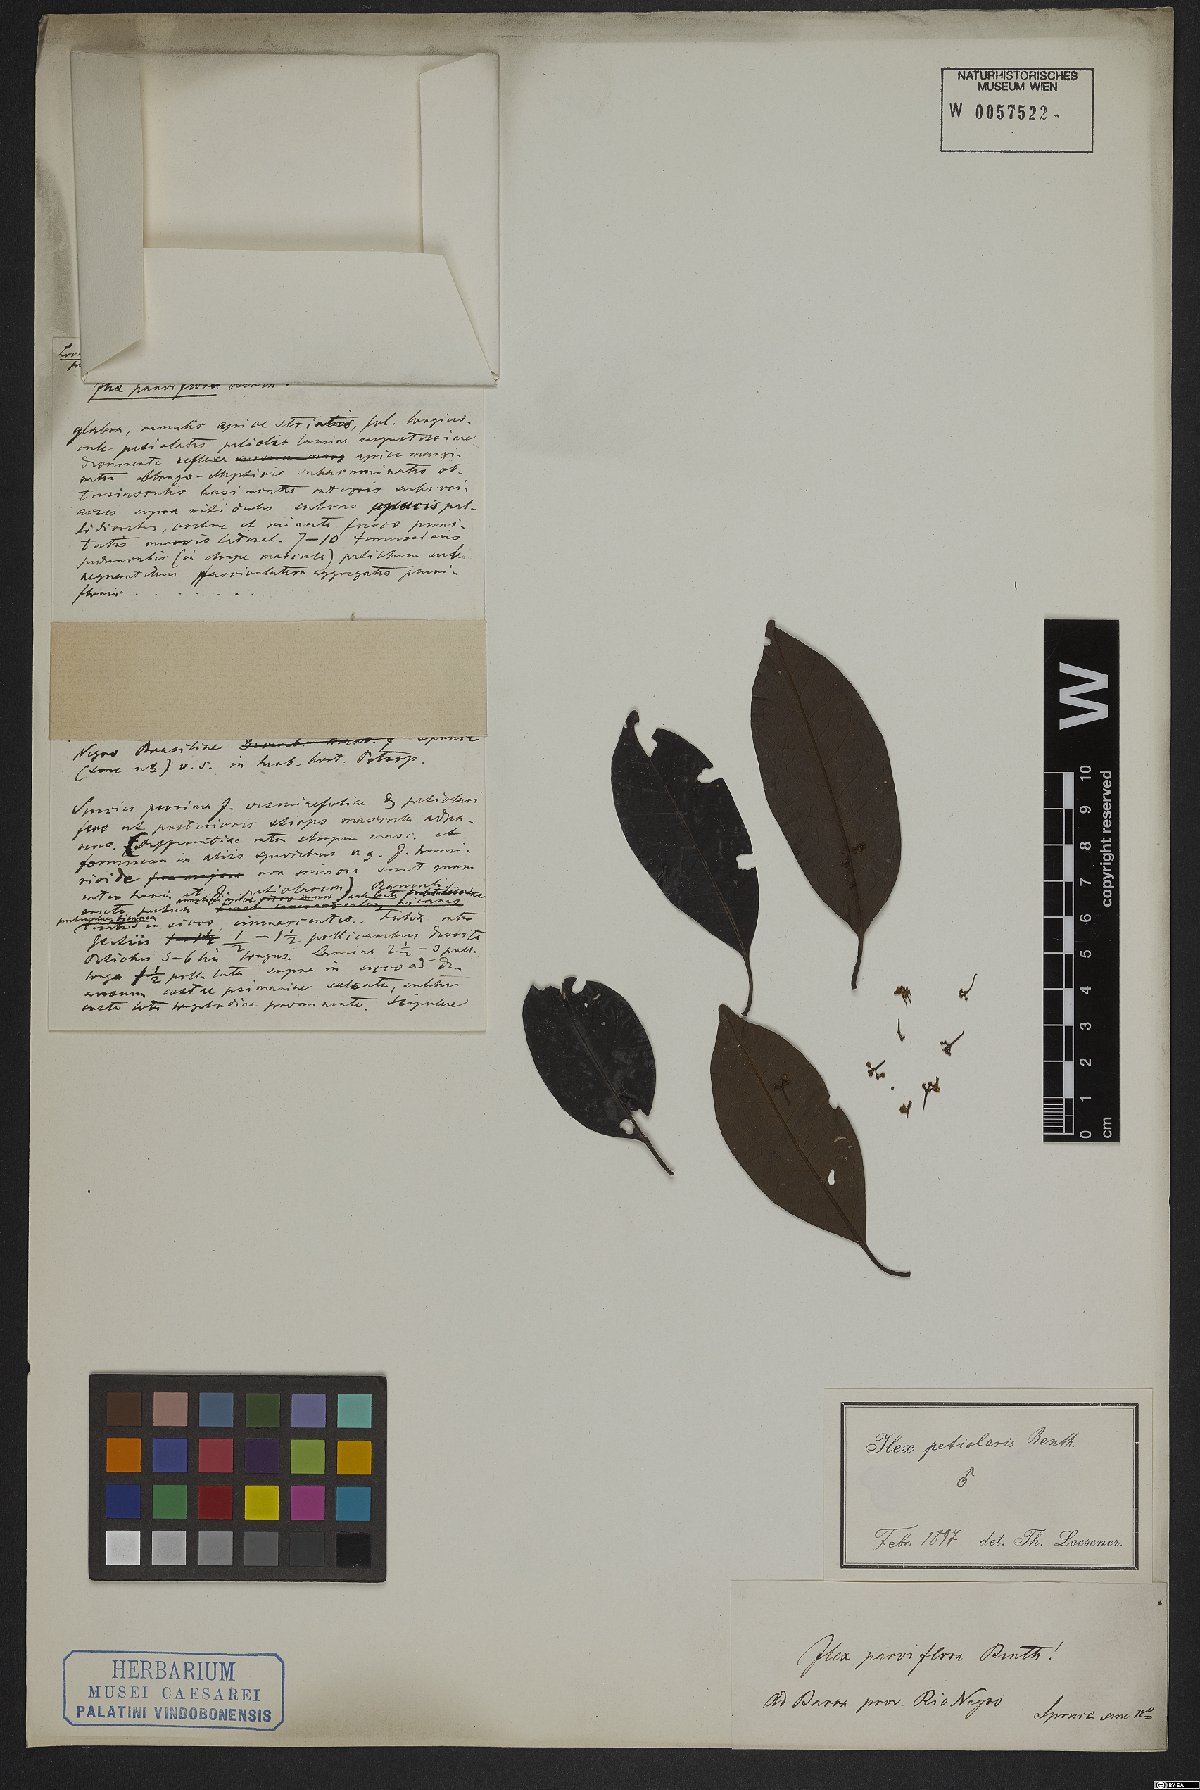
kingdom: Plantae
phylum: Tracheophyta
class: Magnoliopsida
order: Aquifoliales
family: Aquifoliaceae
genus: Ilex
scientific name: Ilex petiolaris
